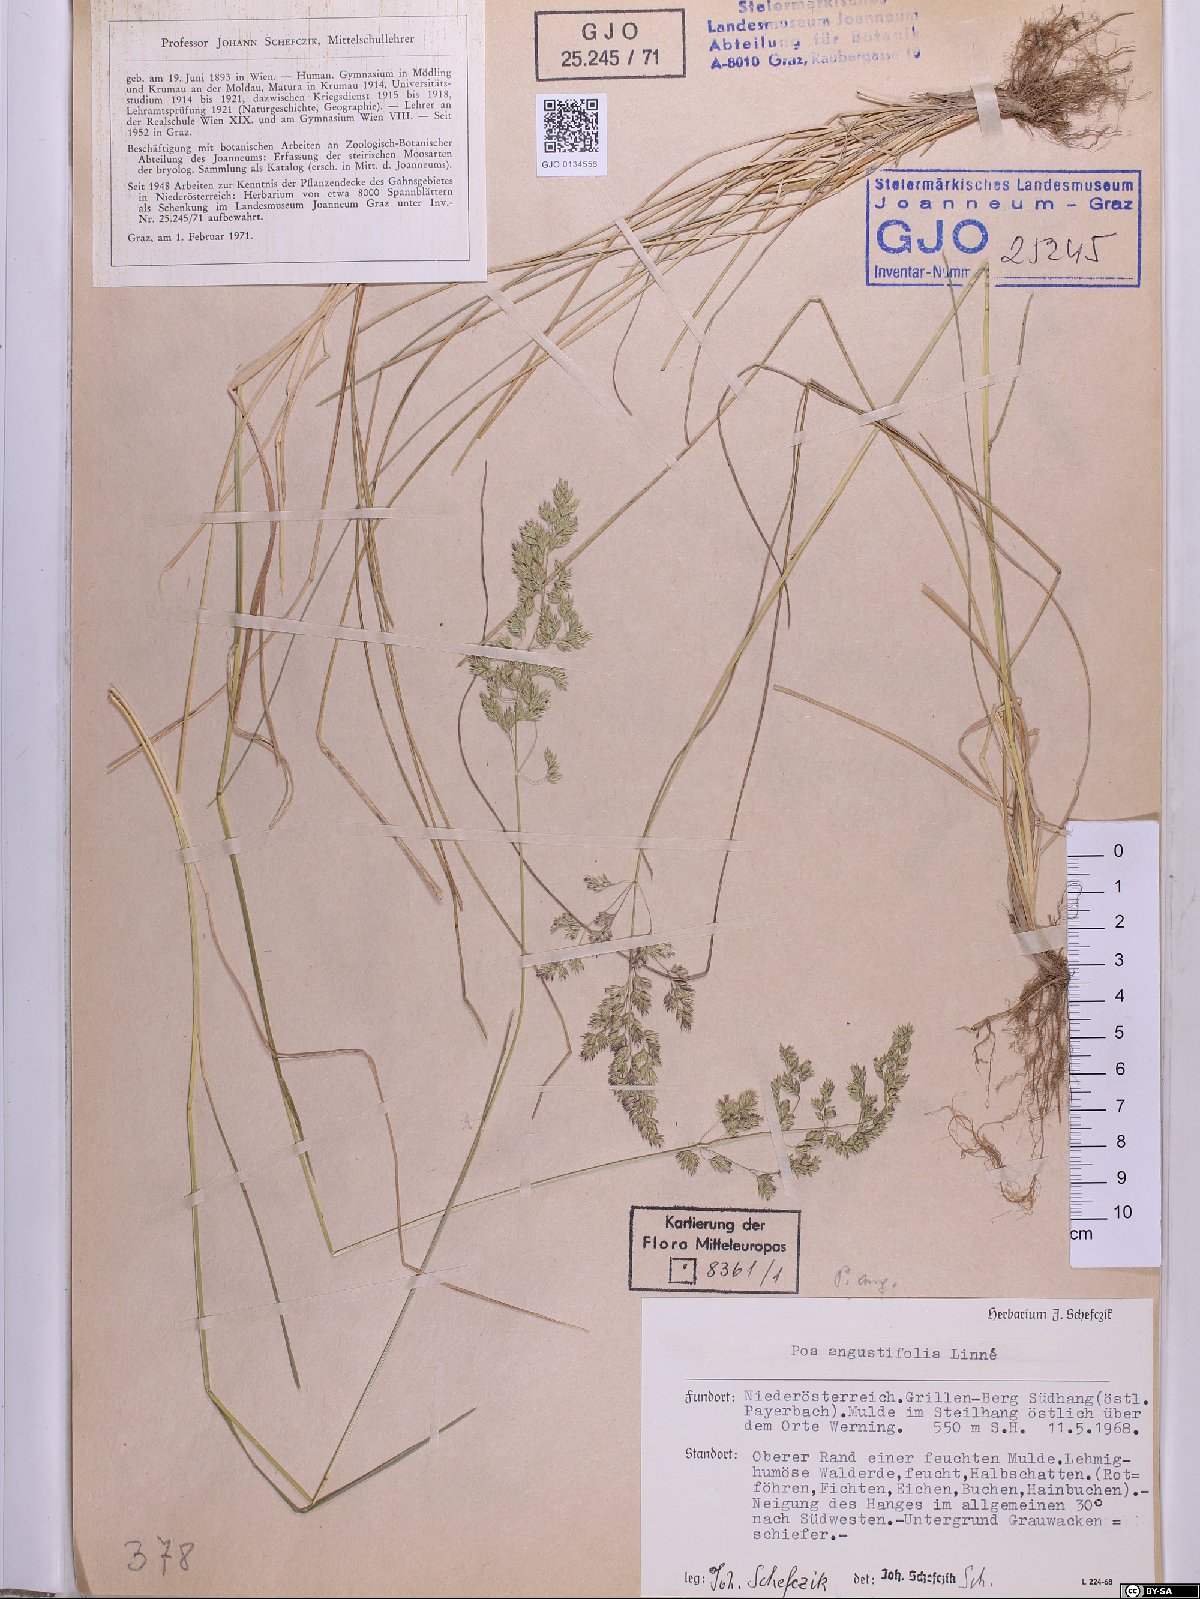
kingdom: Plantae
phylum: Tracheophyta
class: Liliopsida
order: Poales
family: Poaceae
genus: Poa
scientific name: Poa angustifolia
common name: Narrow-leaved meadow-grass
